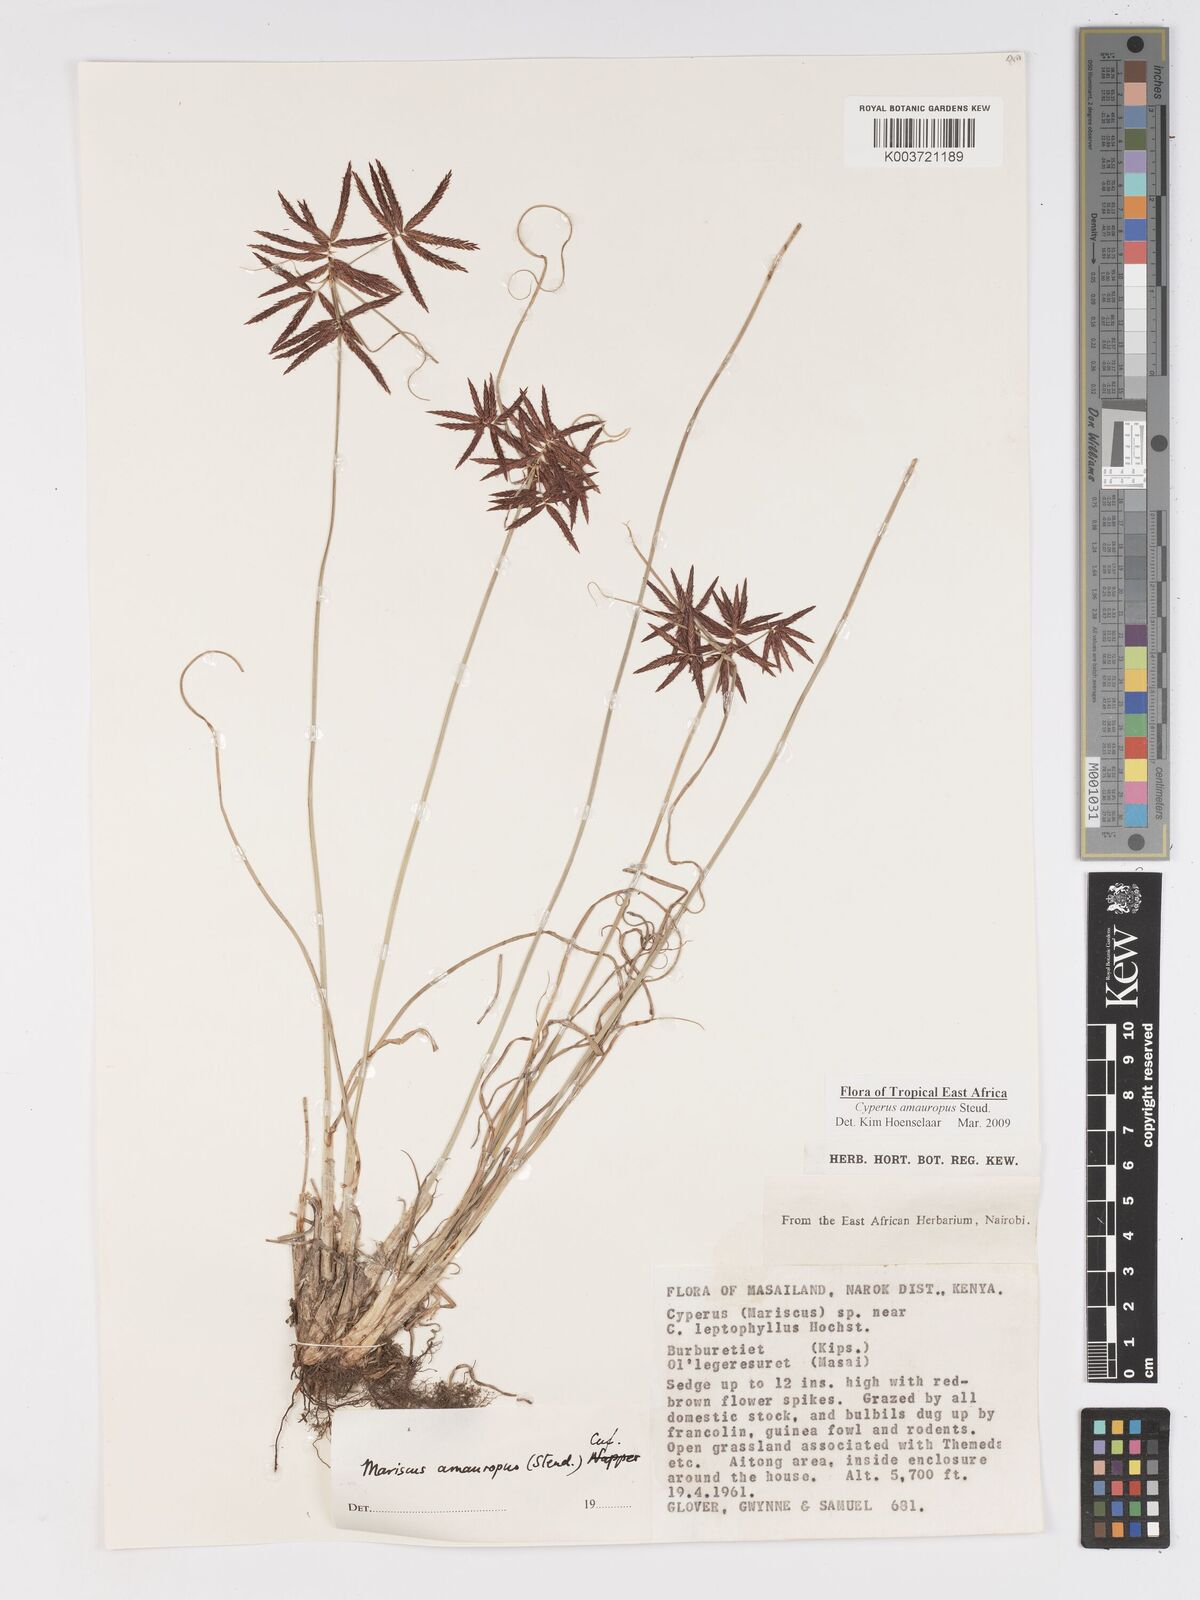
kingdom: Plantae
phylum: Tracheophyta
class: Liliopsida
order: Poales
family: Cyperaceae
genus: Cyperus
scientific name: Cyperus amauropus
